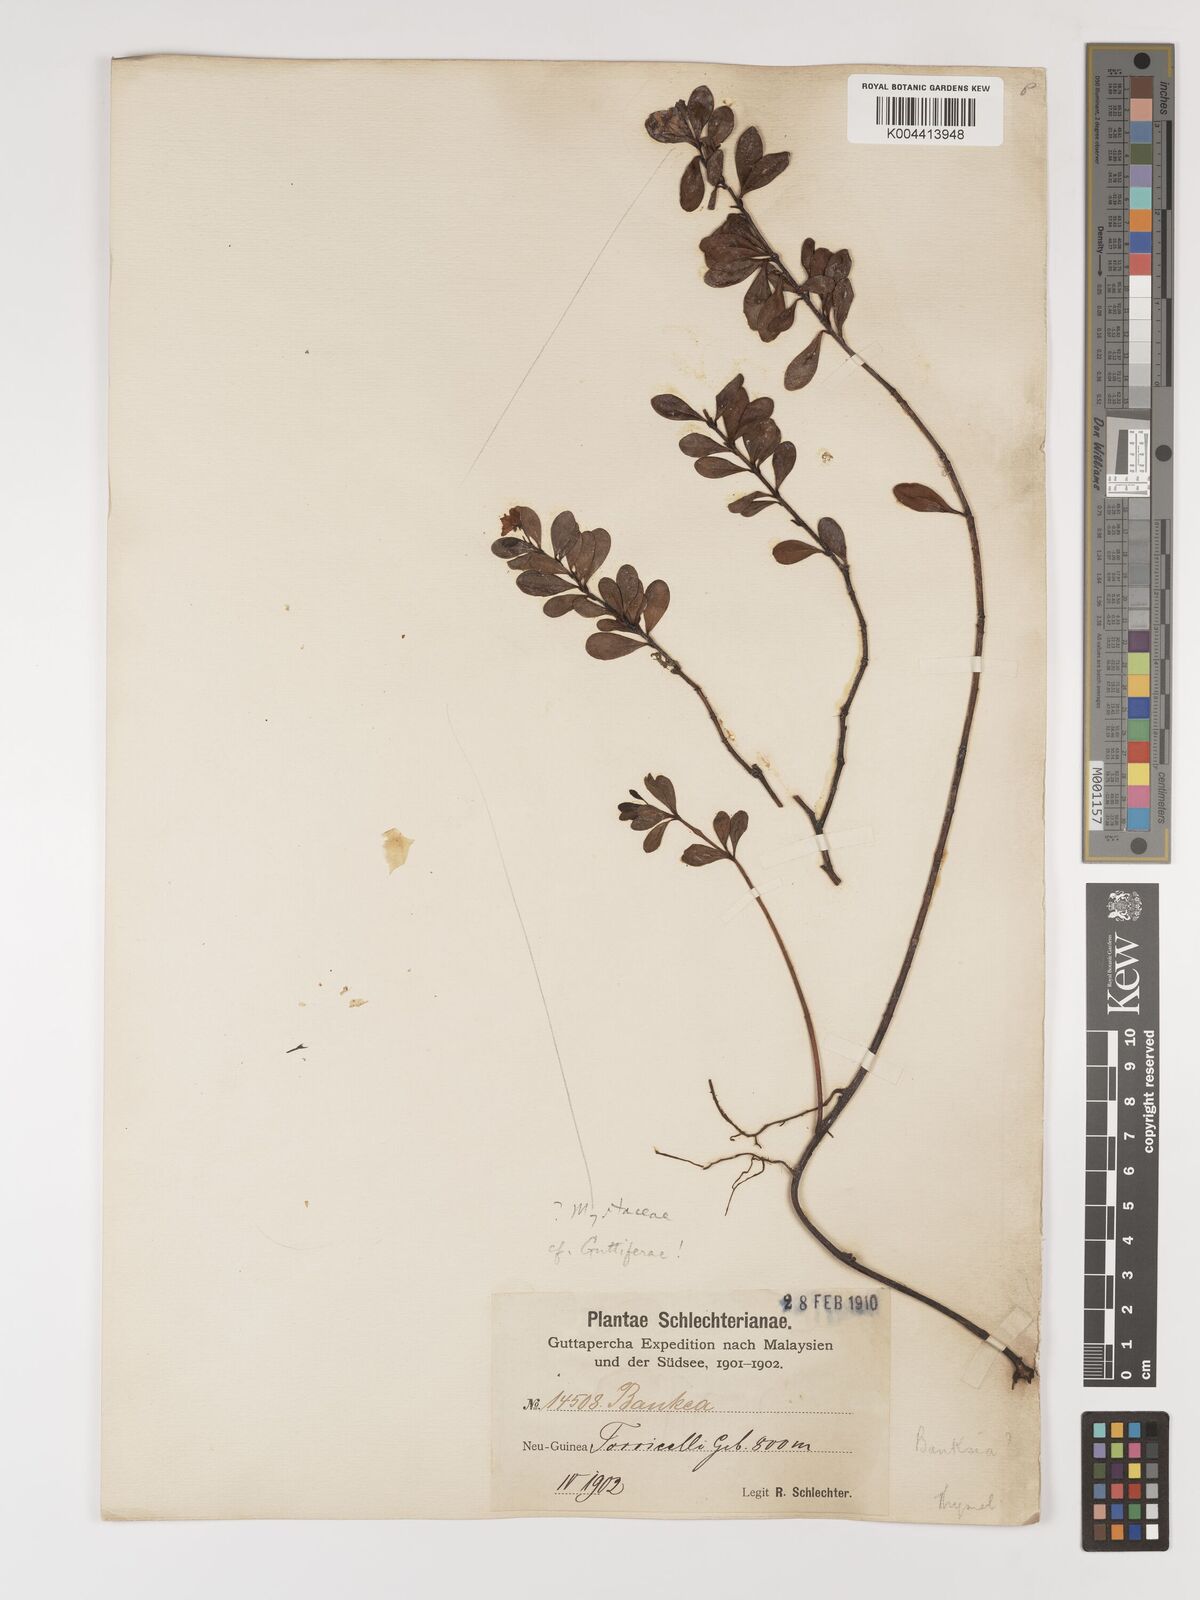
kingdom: Plantae
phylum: Tracheophyta
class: Magnoliopsida
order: Myrtales
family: Myrtaceae
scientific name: Myrtaceae
